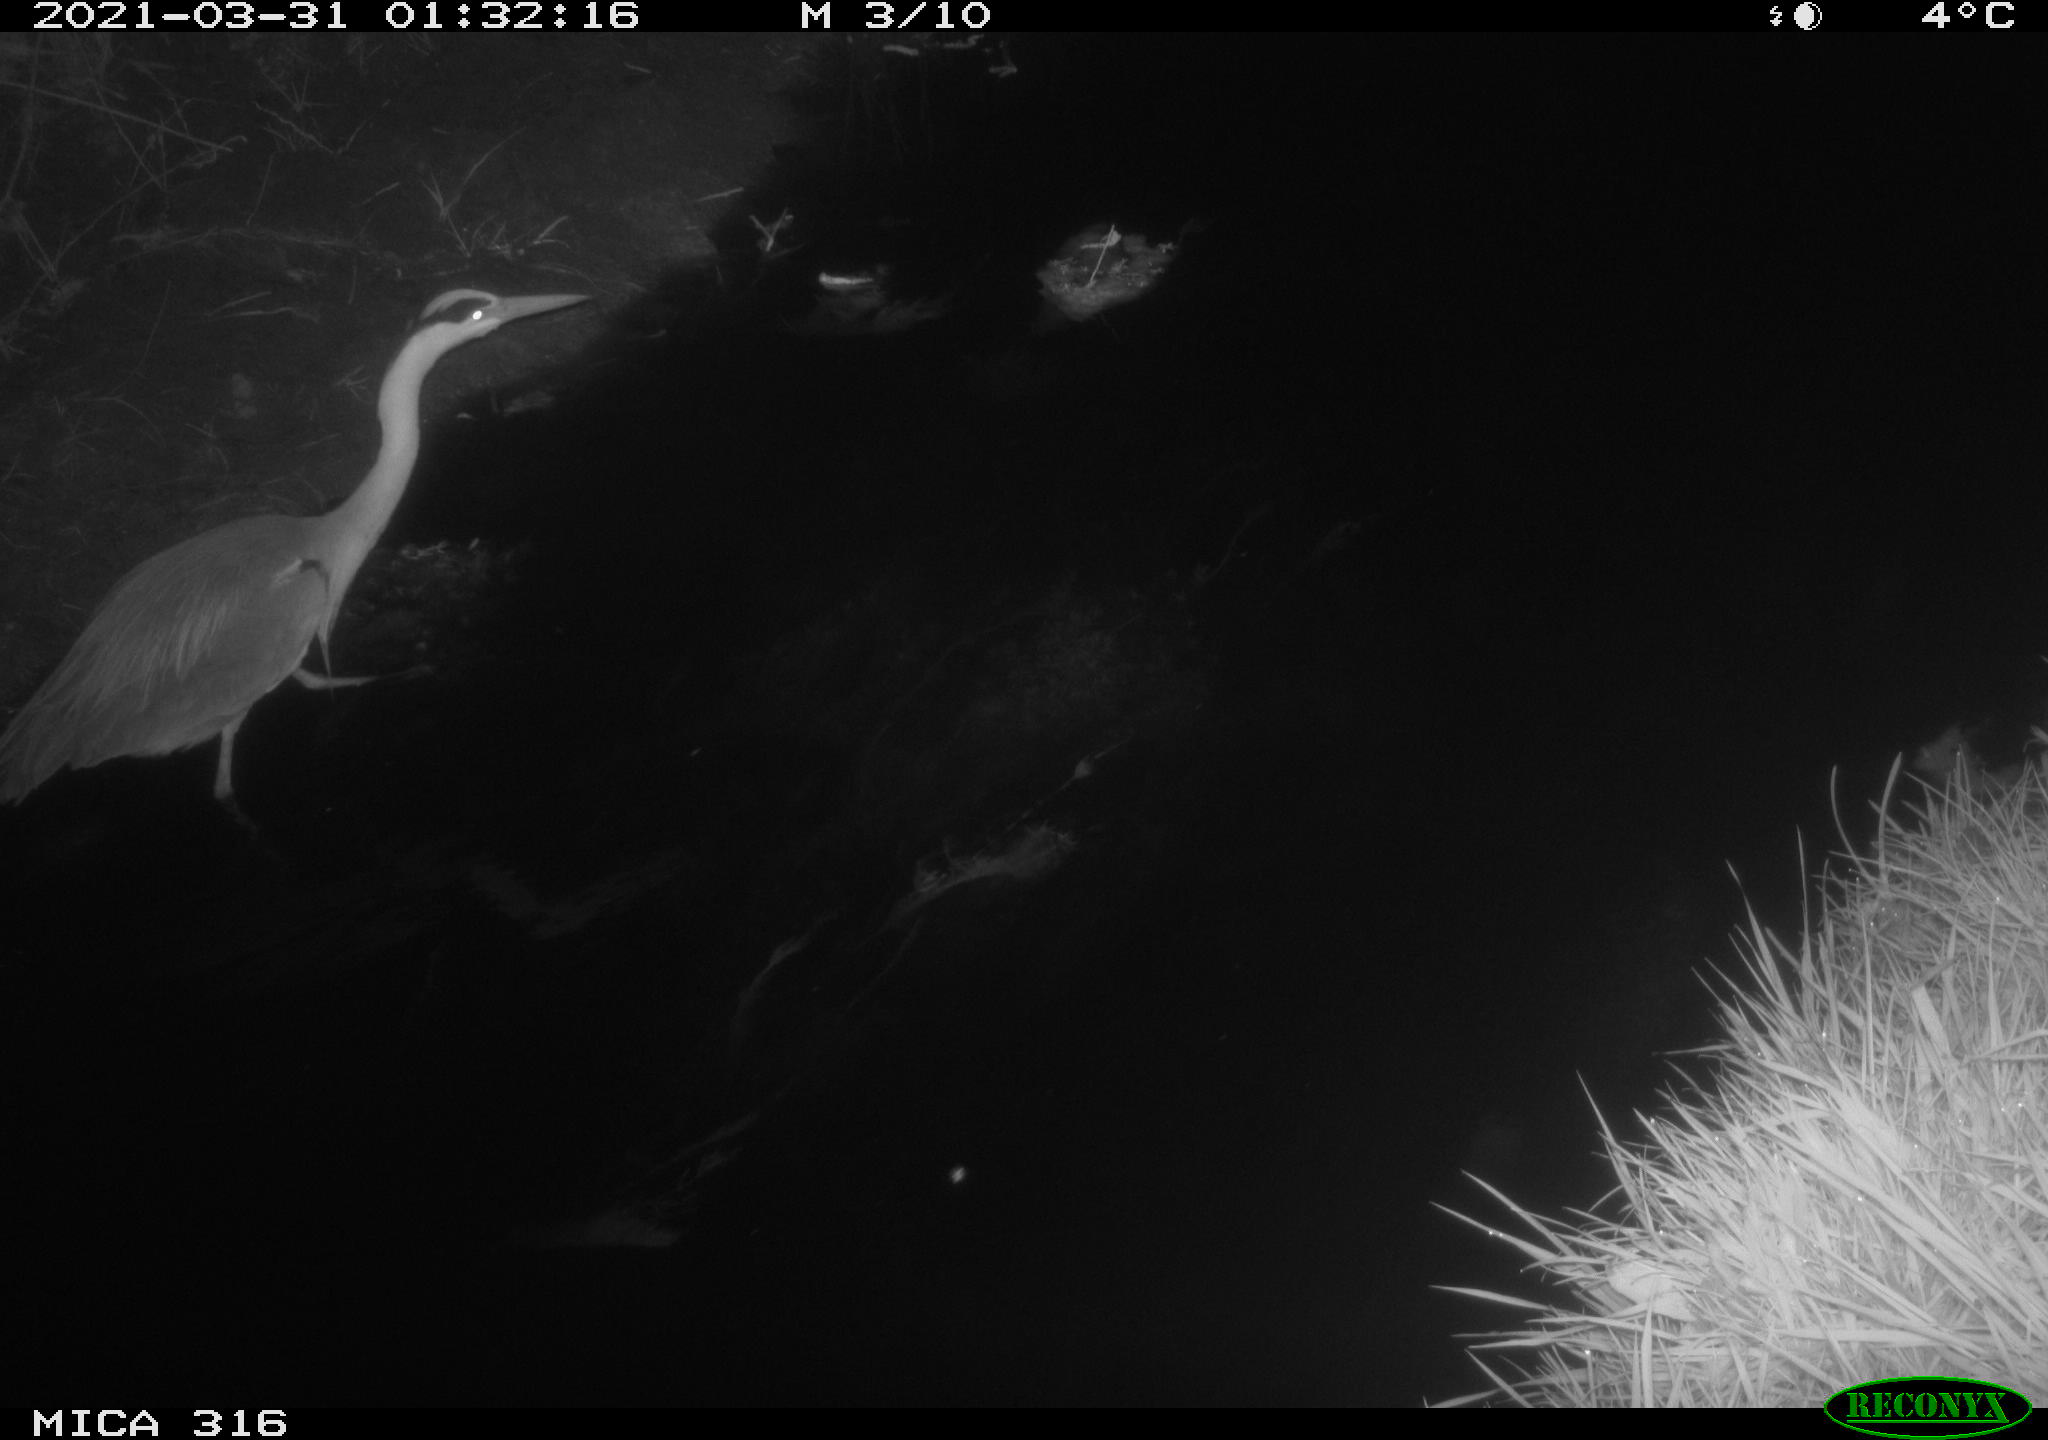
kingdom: Animalia
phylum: Chordata
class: Aves
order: Pelecaniformes
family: Ardeidae
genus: Ardea
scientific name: Ardea cinerea
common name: Grey heron
